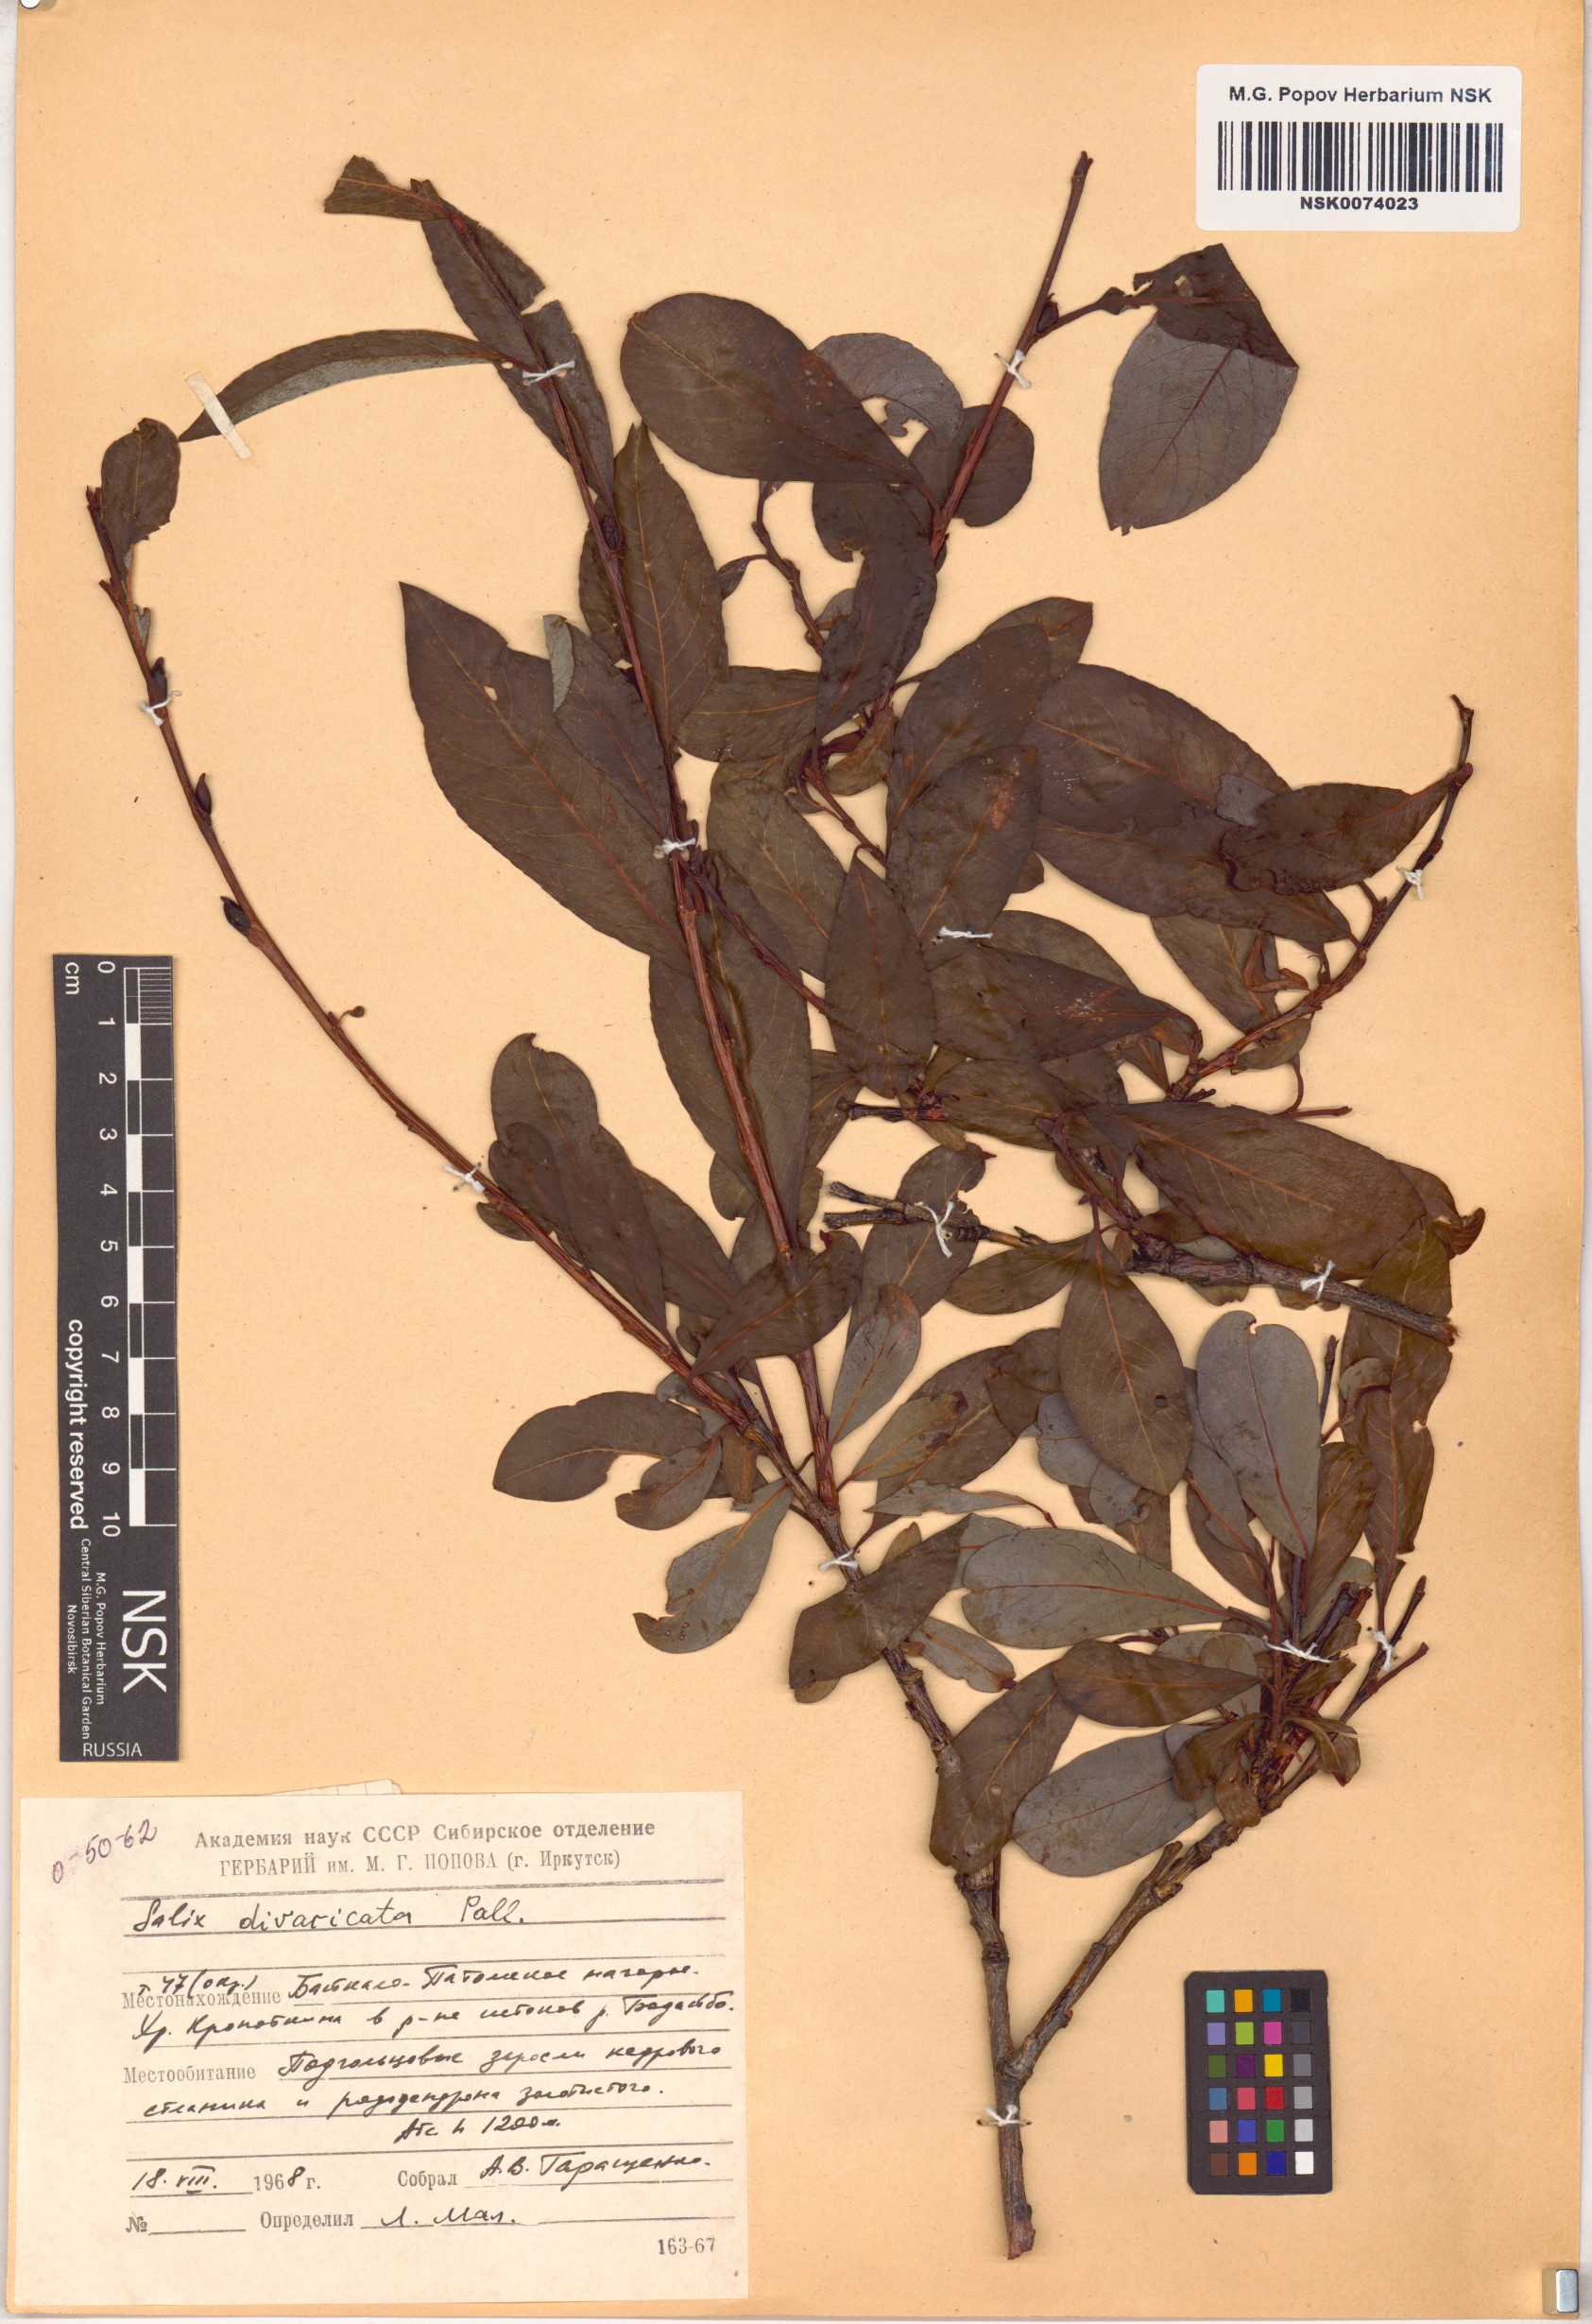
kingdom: Plantae
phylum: Tracheophyta
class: Magnoliopsida
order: Malpighiales
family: Salicaceae
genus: Salix
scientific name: Salix divaricata
